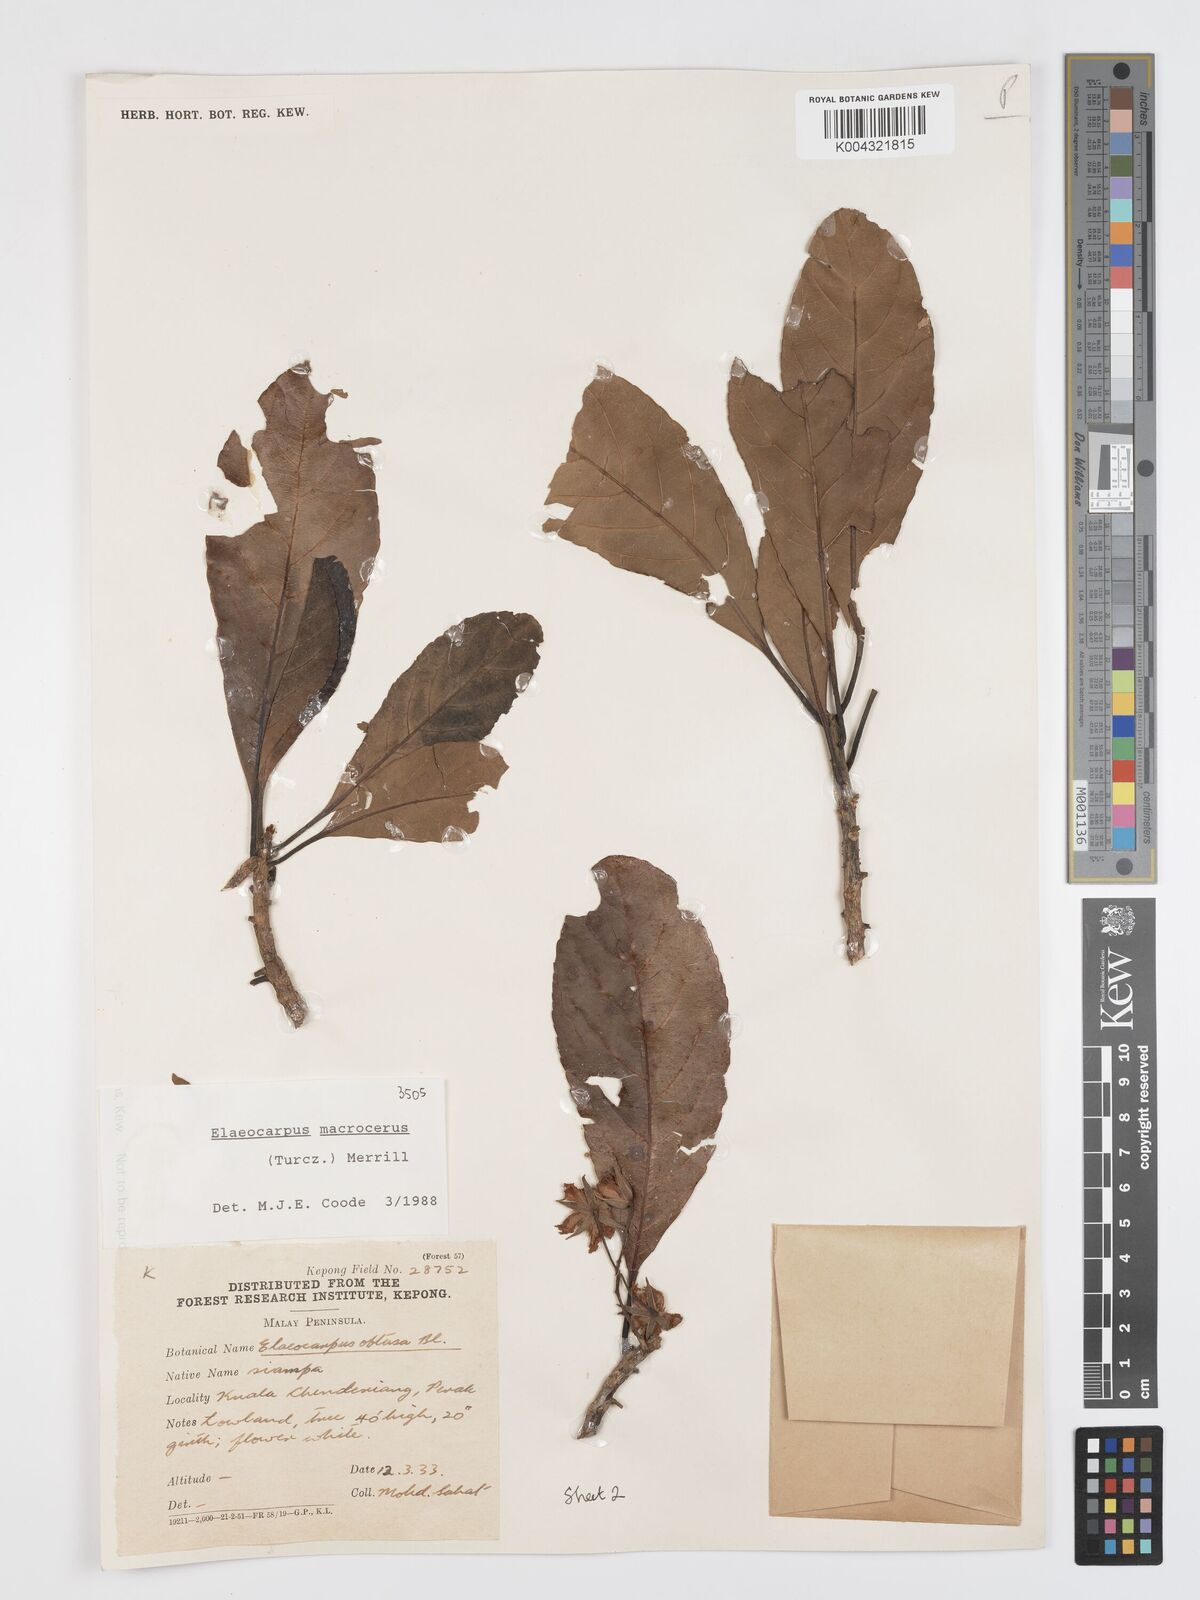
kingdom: Plantae
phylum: Tracheophyta
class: Magnoliopsida
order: Oxalidales
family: Elaeocarpaceae
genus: Elaeocarpus
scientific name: Elaeocarpus
